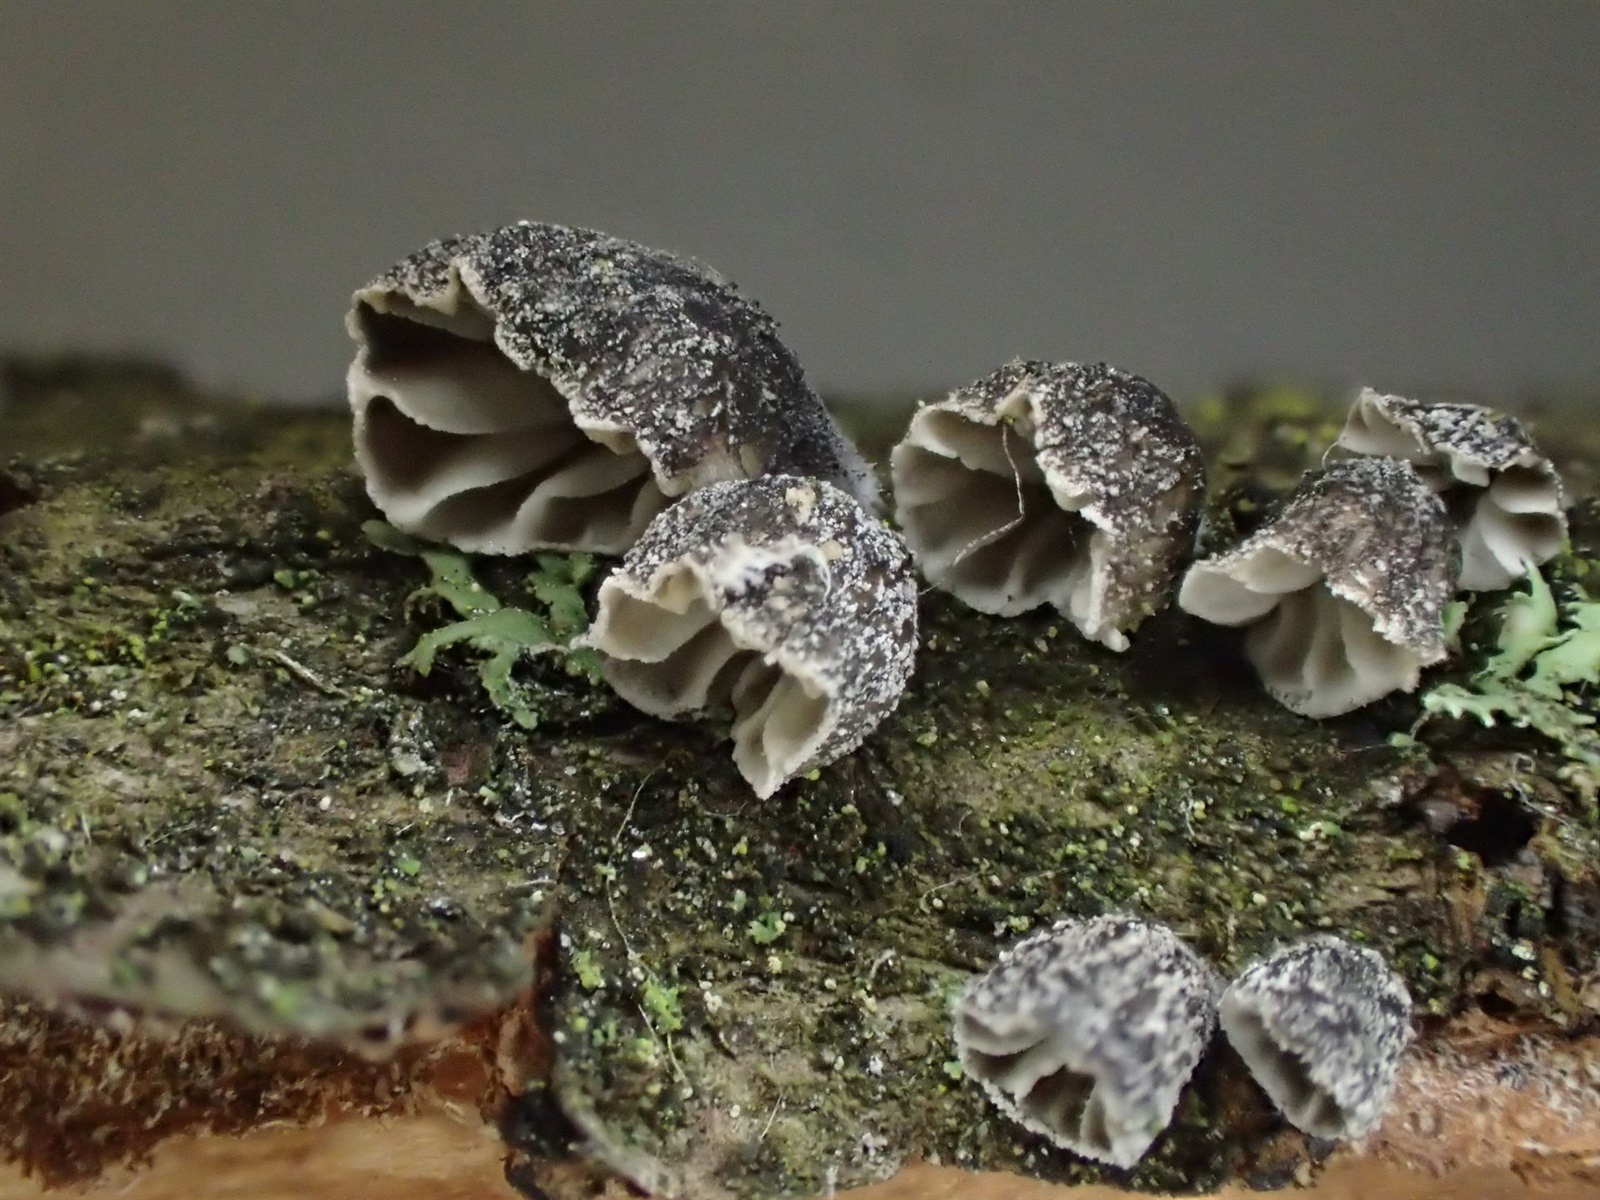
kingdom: Fungi
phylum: Basidiomycota
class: Agaricomycetes
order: Agaricales
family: Pleurotaceae
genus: Hohenbuehelia
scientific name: Hohenbuehelia cyphelliformis
